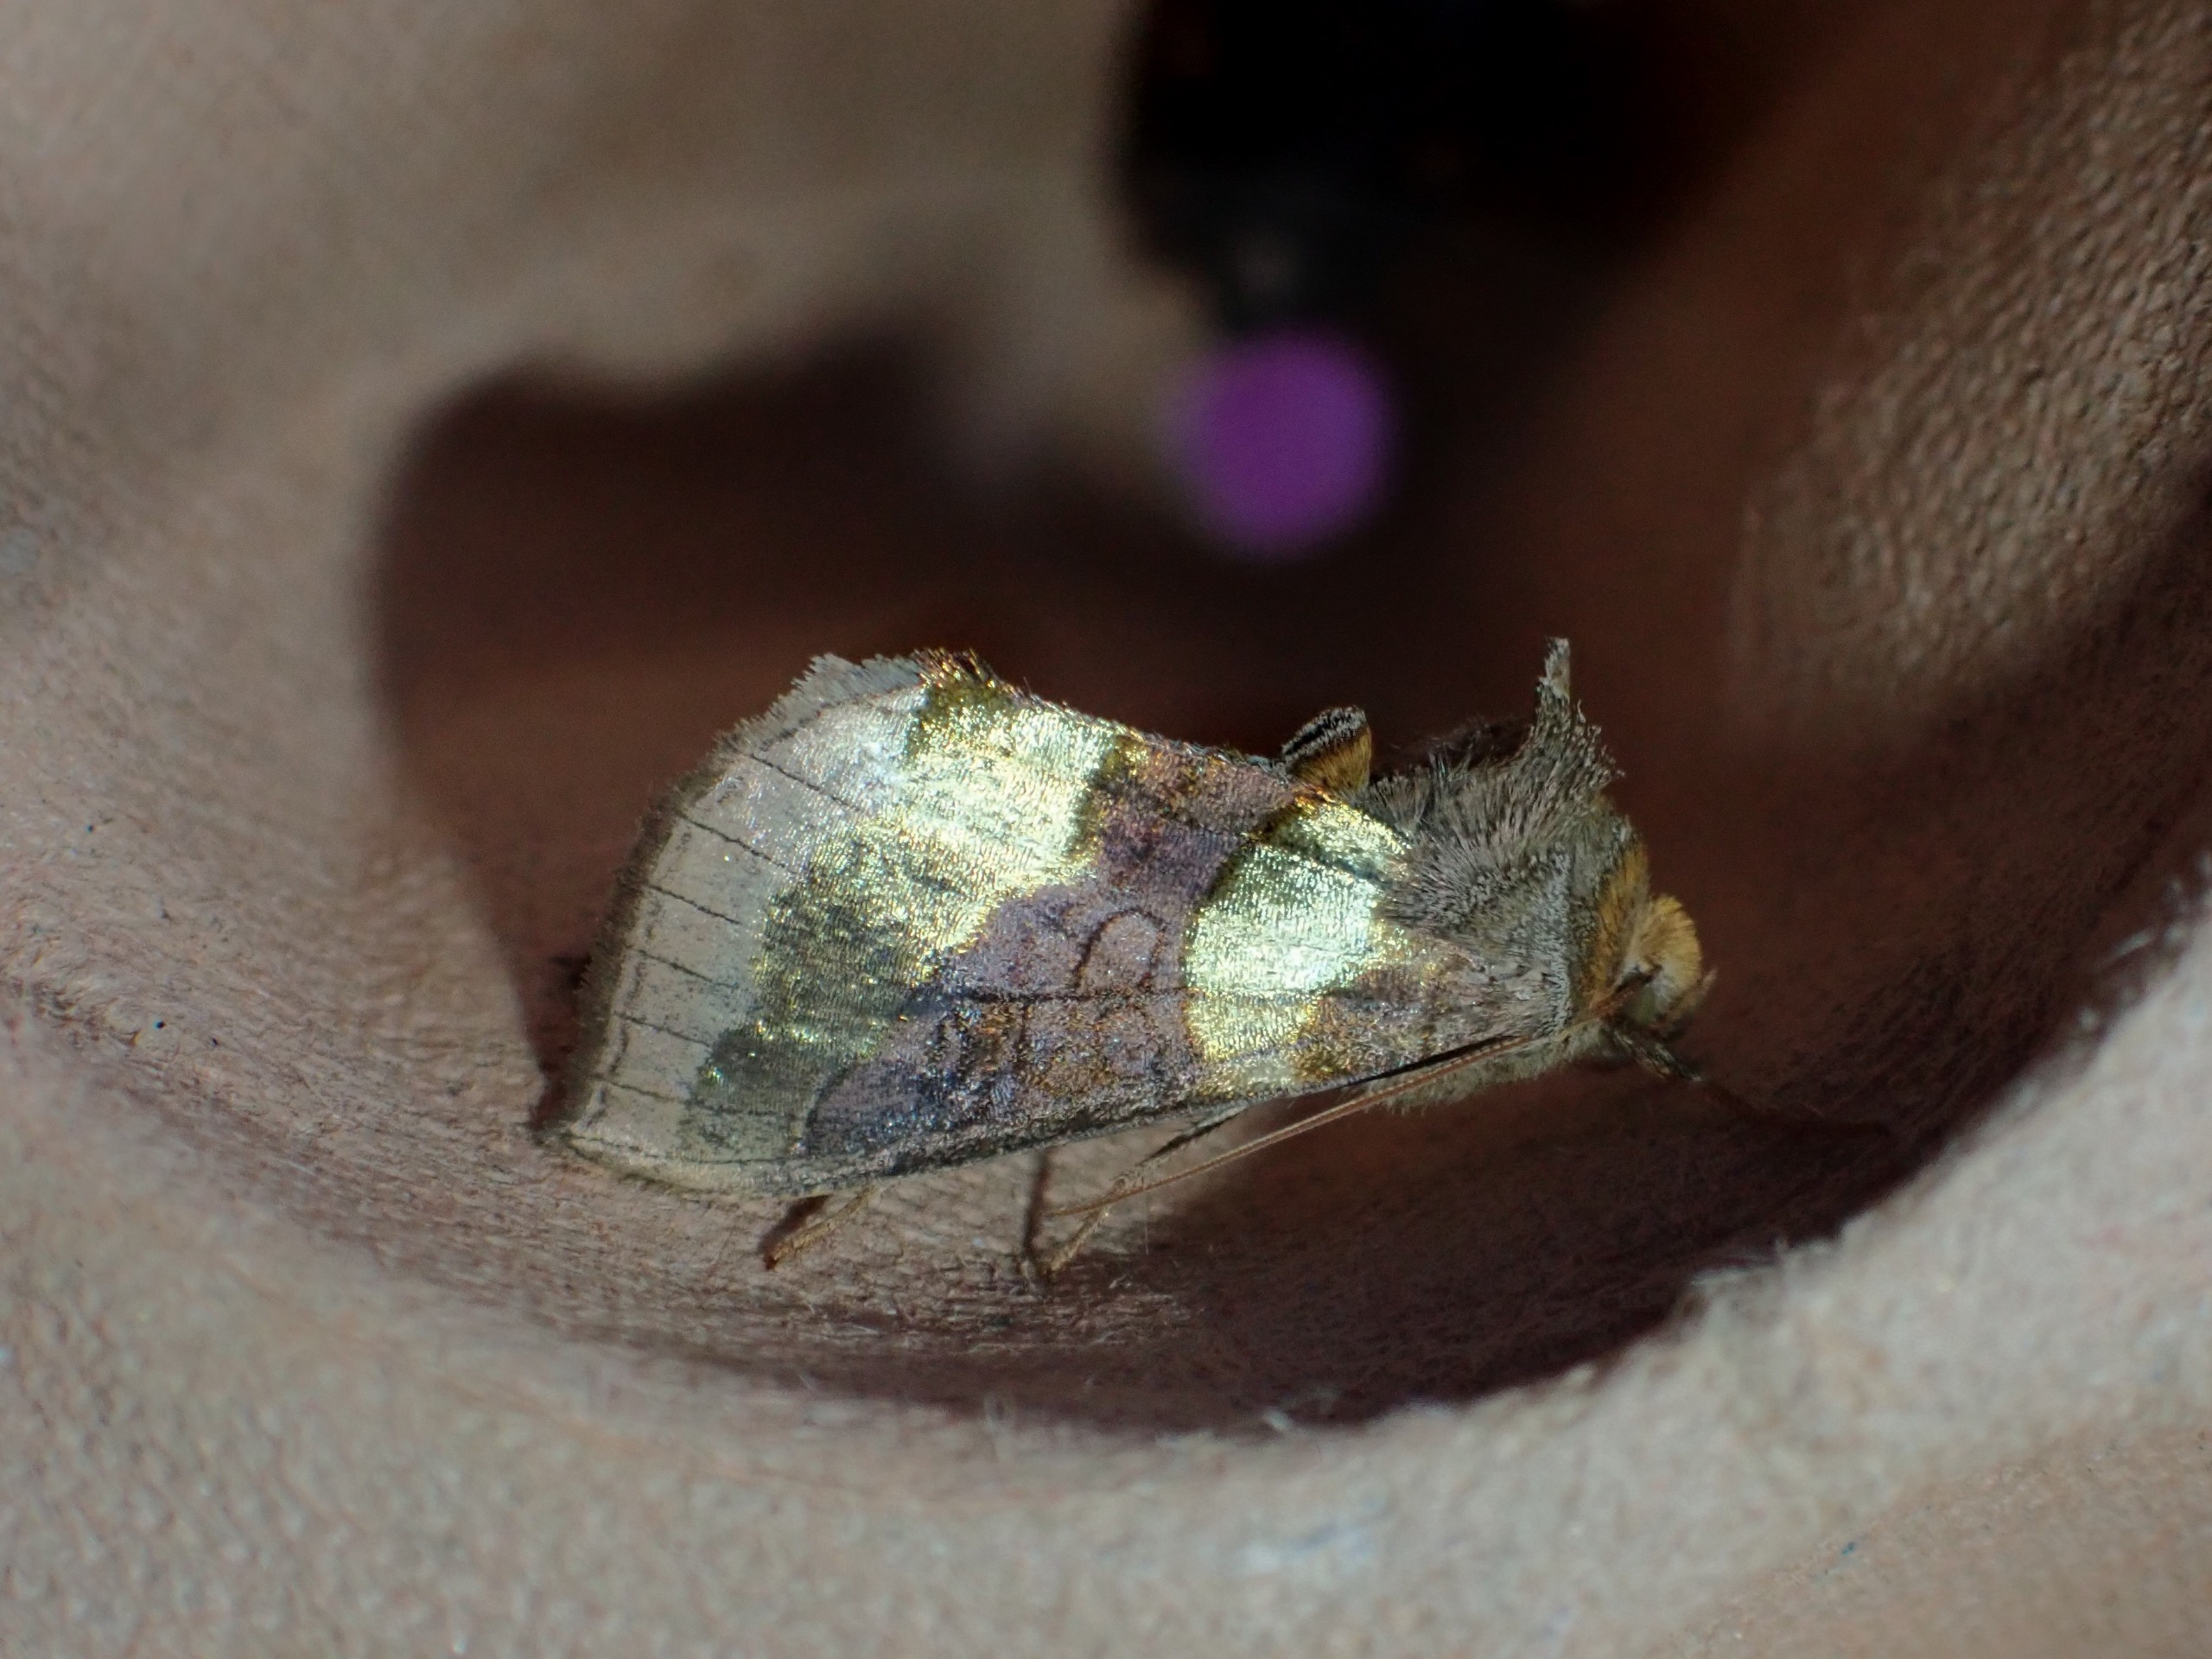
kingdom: Animalia
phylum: Arthropoda
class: Insecta
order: Lepidoptera
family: Noctuidae
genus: Diachrysia
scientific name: Diachrysia chrysitis
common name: Messingugle
